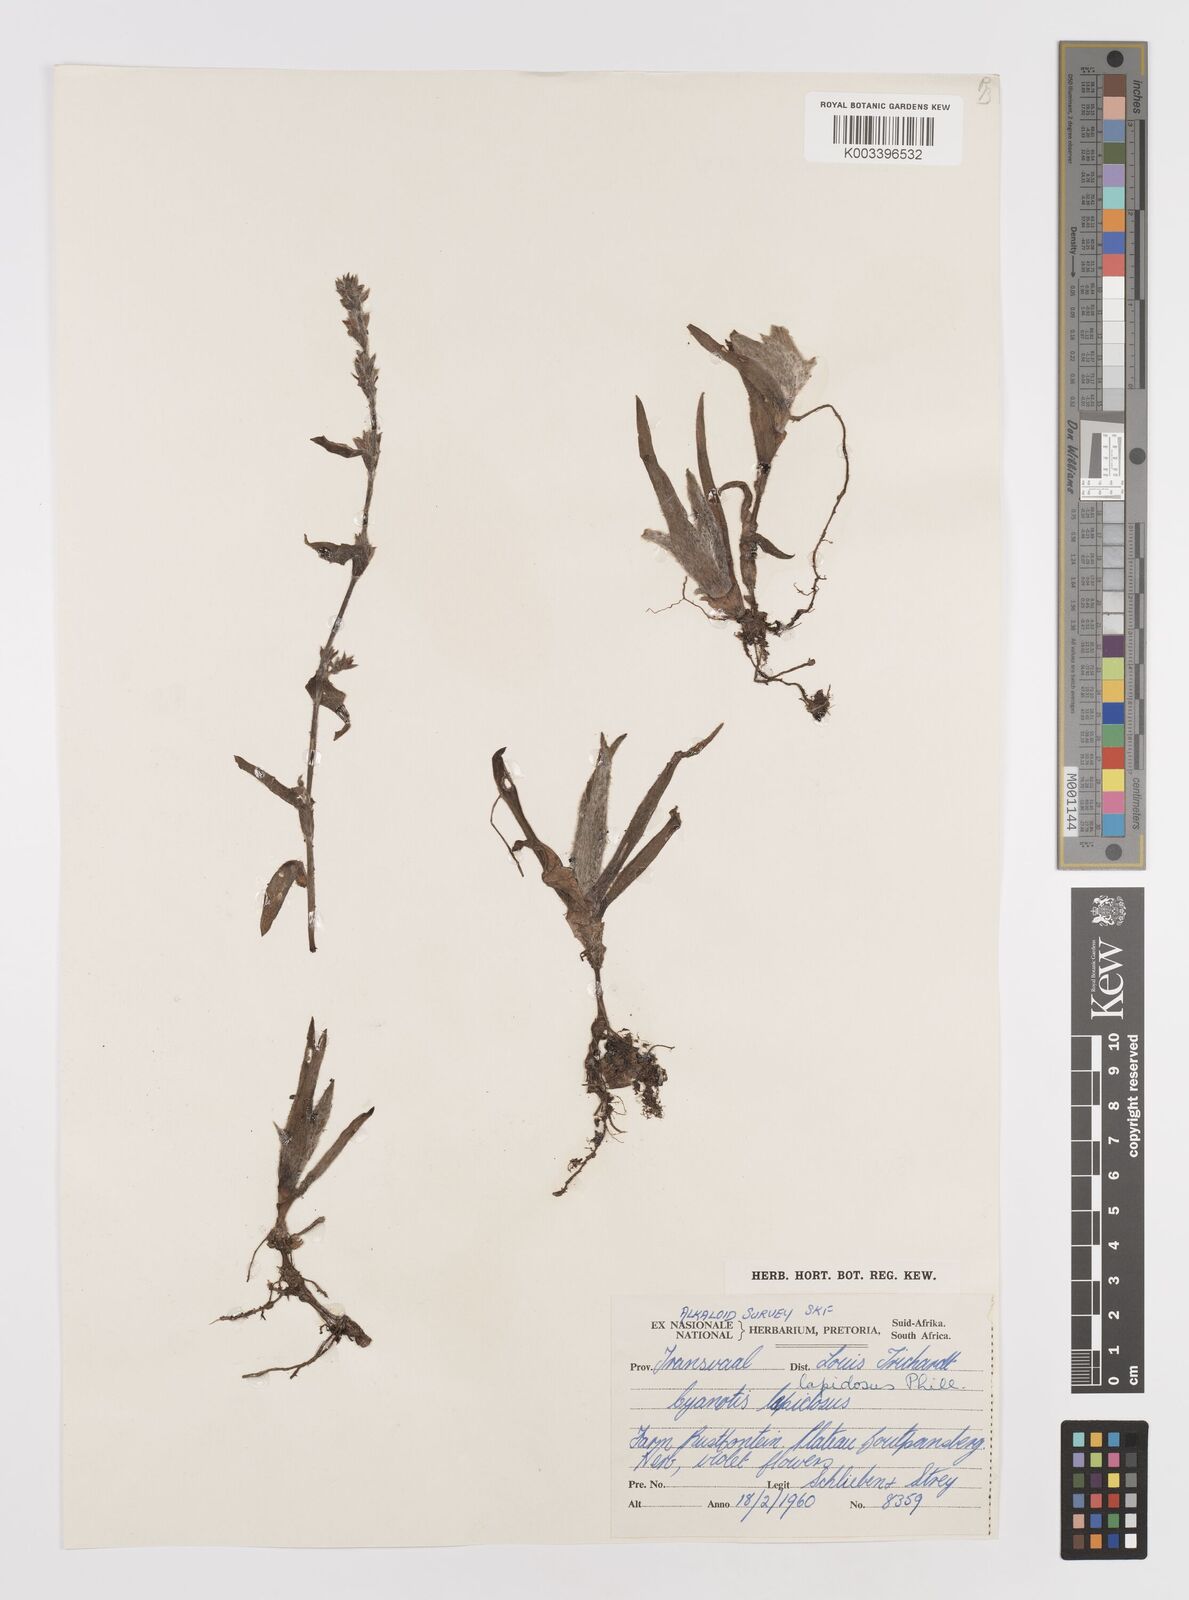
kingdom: Plantae
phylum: Tracheophyta
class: Liliopsida
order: Commelinales
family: Commelinaceae
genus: Cyanotis
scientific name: Cyanotis lapidosa
